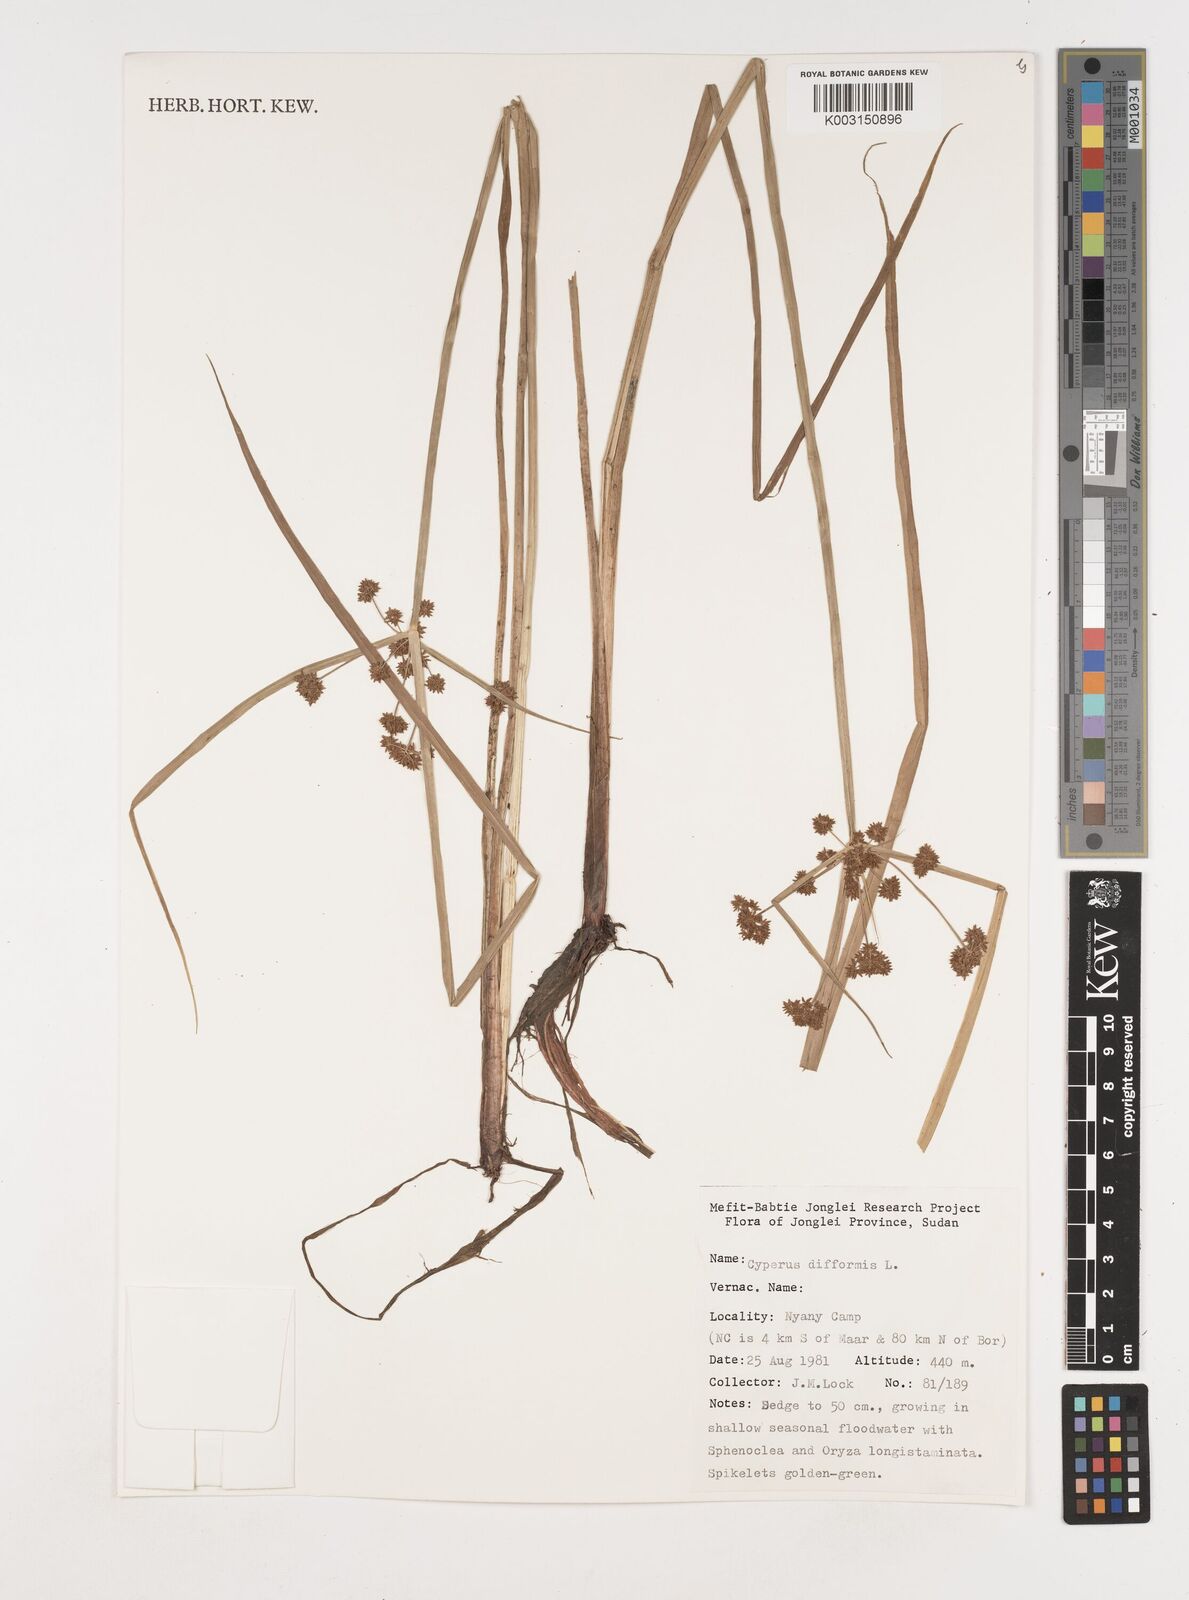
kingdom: Plantae
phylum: Tracheophyta
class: Liliopsida
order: Poales
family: Cyperaceae
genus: Cyperus
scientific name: Cyperus difformis
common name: Variable flatsedge
